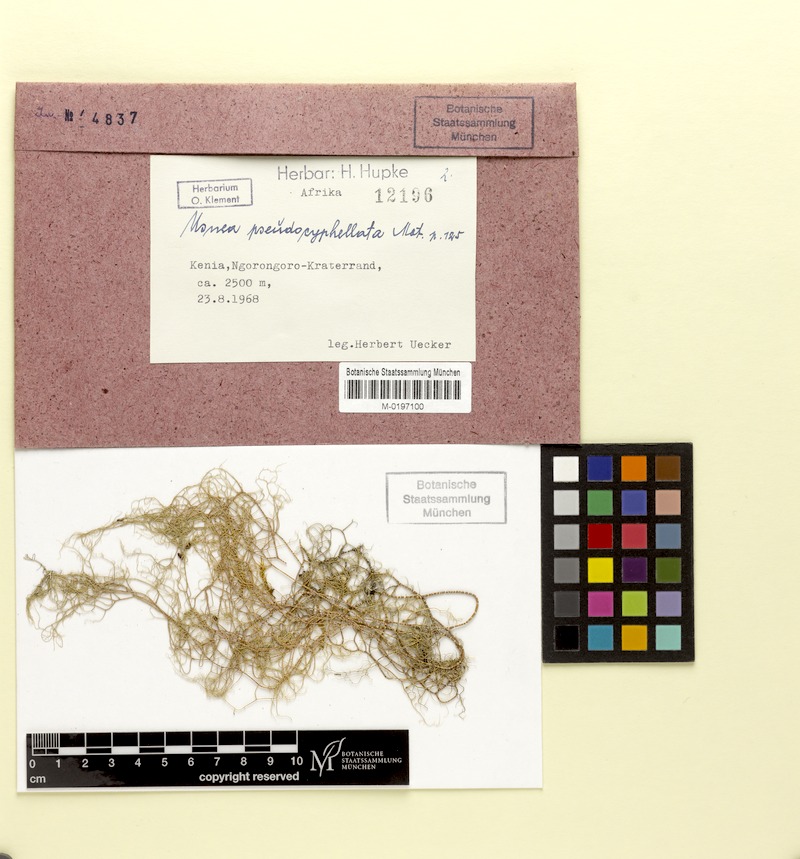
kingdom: Fungi
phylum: Ascomycota
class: Lecanoromycetes
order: Lecanorales
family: Parmeliaceae
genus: Usnea
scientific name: Usnea
